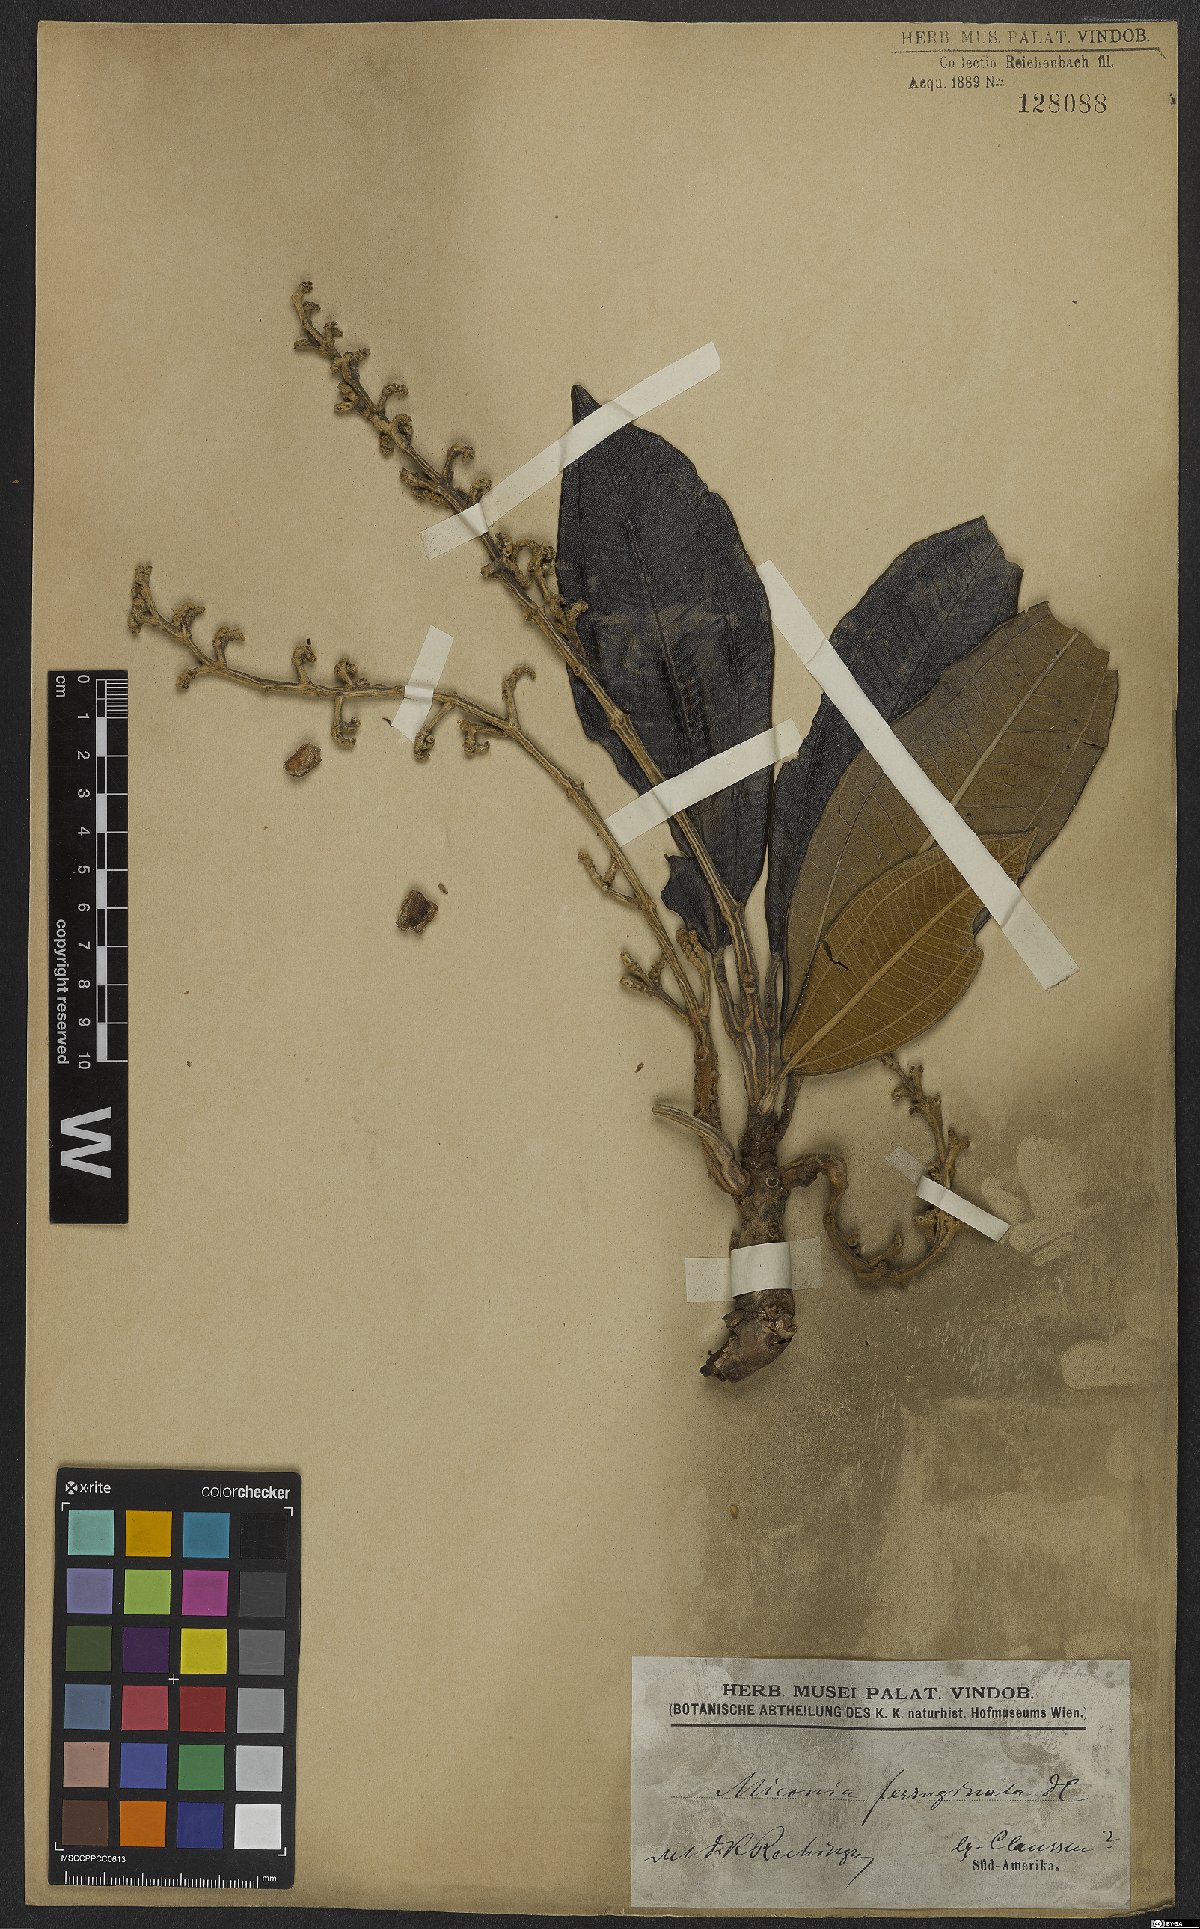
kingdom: Plantae
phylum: Tracheophyta
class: Magnoliopsida
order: Myrtales
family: Melastomataceae
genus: Miconia
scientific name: Miconia ferruginata
